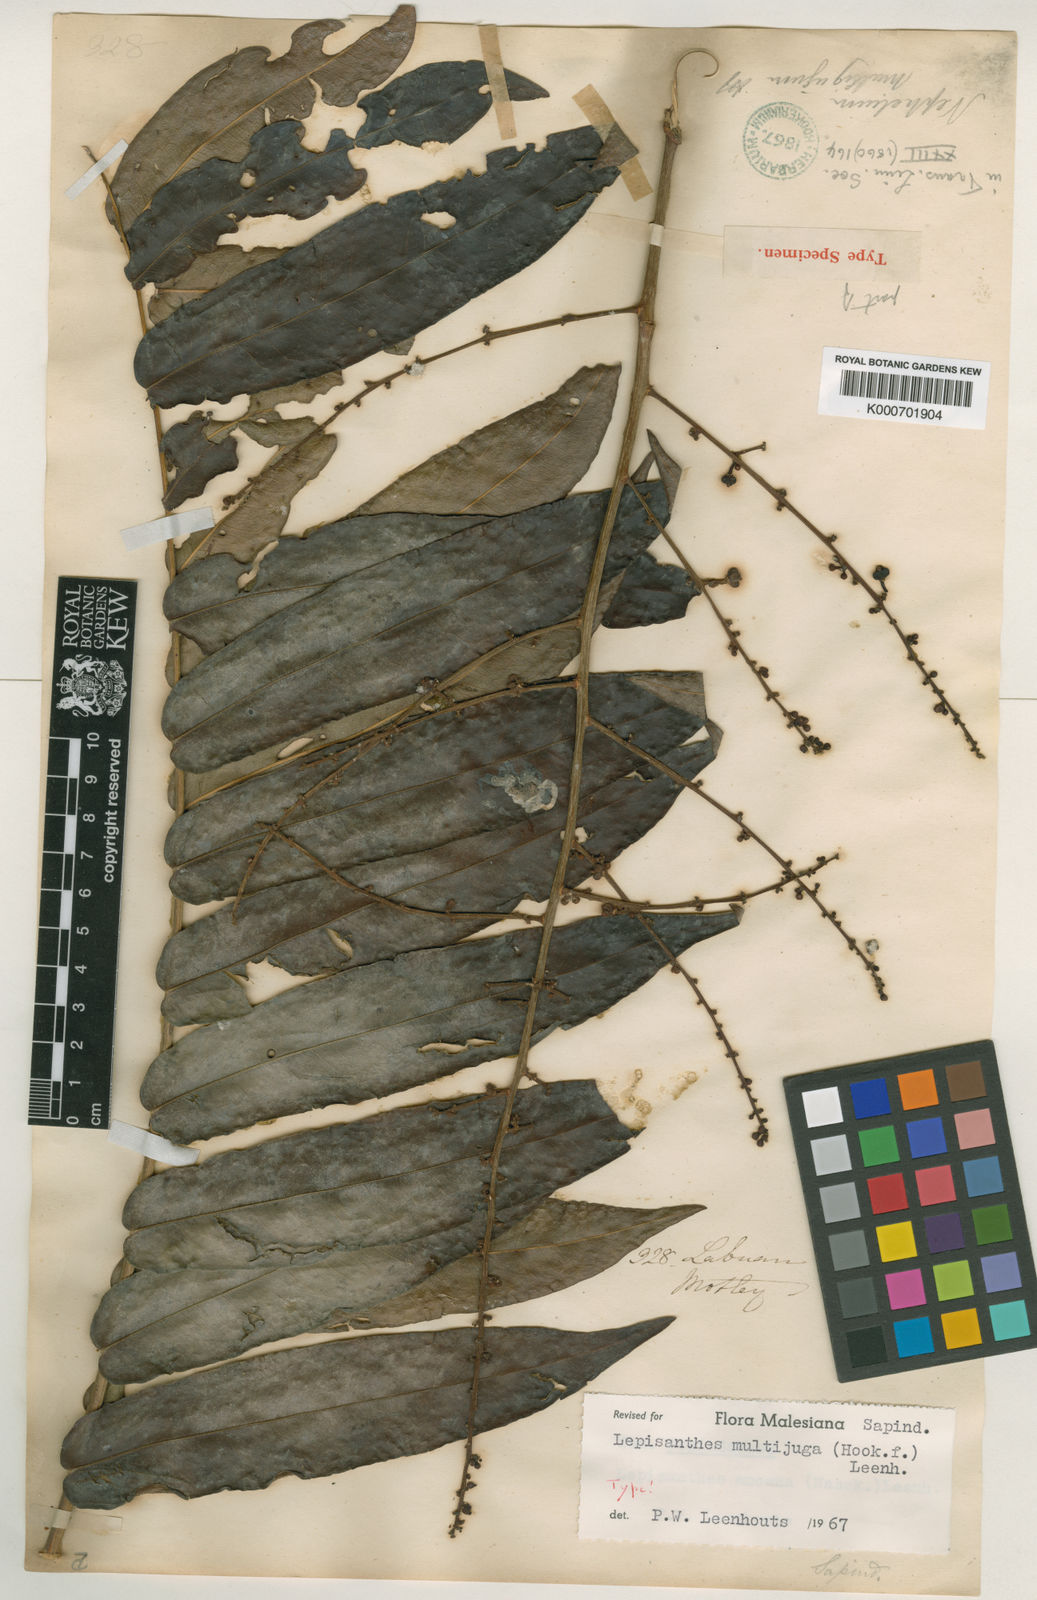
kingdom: Plantae
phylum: Tracheophyta
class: Magnoliopsida
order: Sapindales
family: Sapindaceae
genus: Lepisanthes
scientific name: Lepisanthes multijuga
